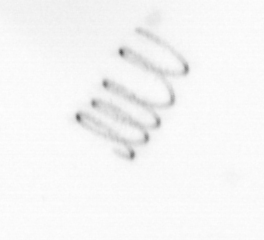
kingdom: Chromista
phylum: Ochrophyta
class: Bacillariophyceae
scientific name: Bacillariophyceae
